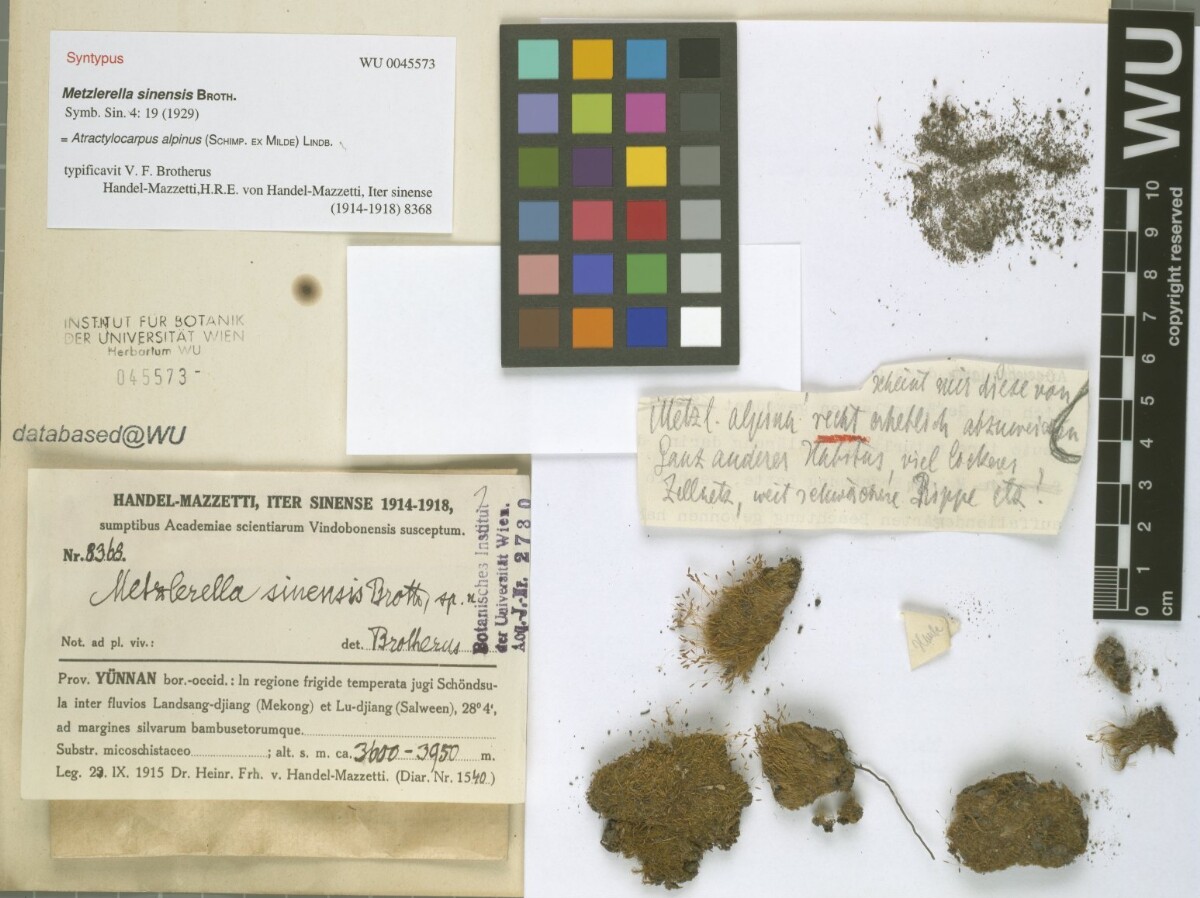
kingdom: Plantae
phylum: Bryophyta
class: Bryopsida
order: Dicranales
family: Leucobryaceae
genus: Atractylocarpus
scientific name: Atractylocarpus alpinus
